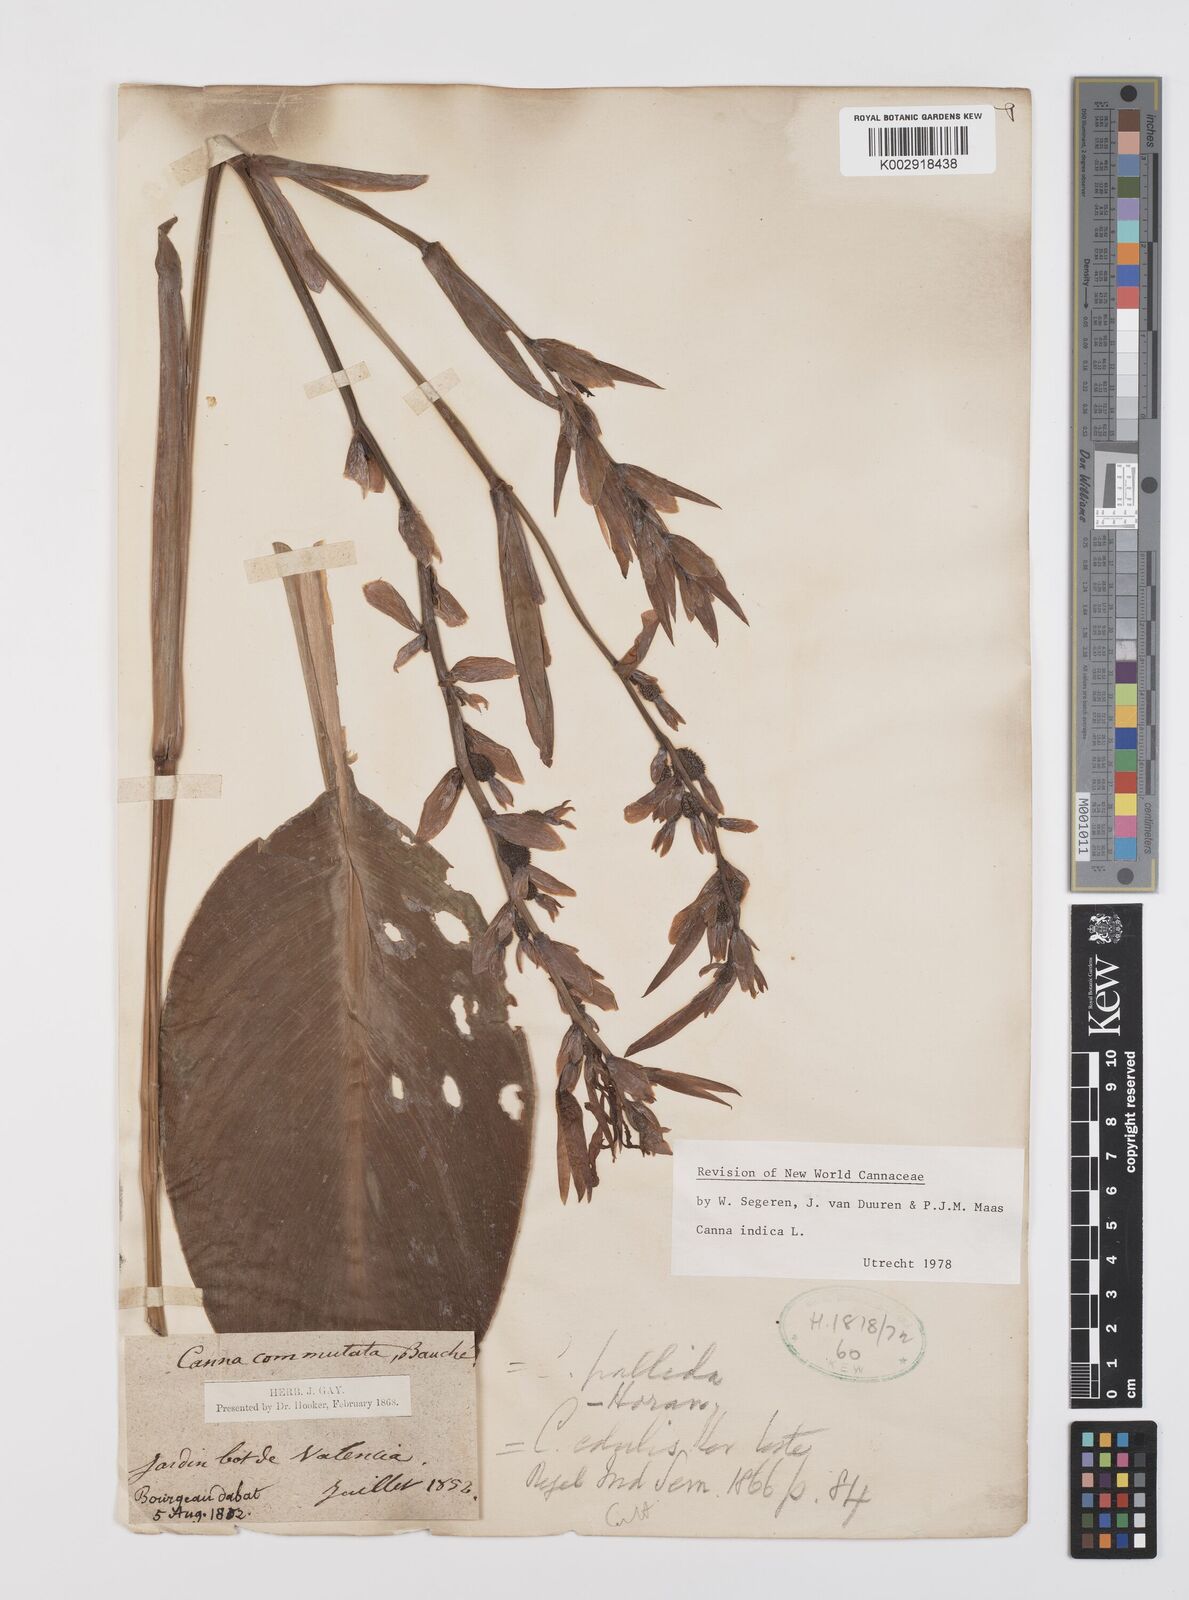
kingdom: Plantae
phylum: Tracheophyta
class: Liliopsida
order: Zingiberales
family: Cannaceae
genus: Canna
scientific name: Canna indica
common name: Indian shot
